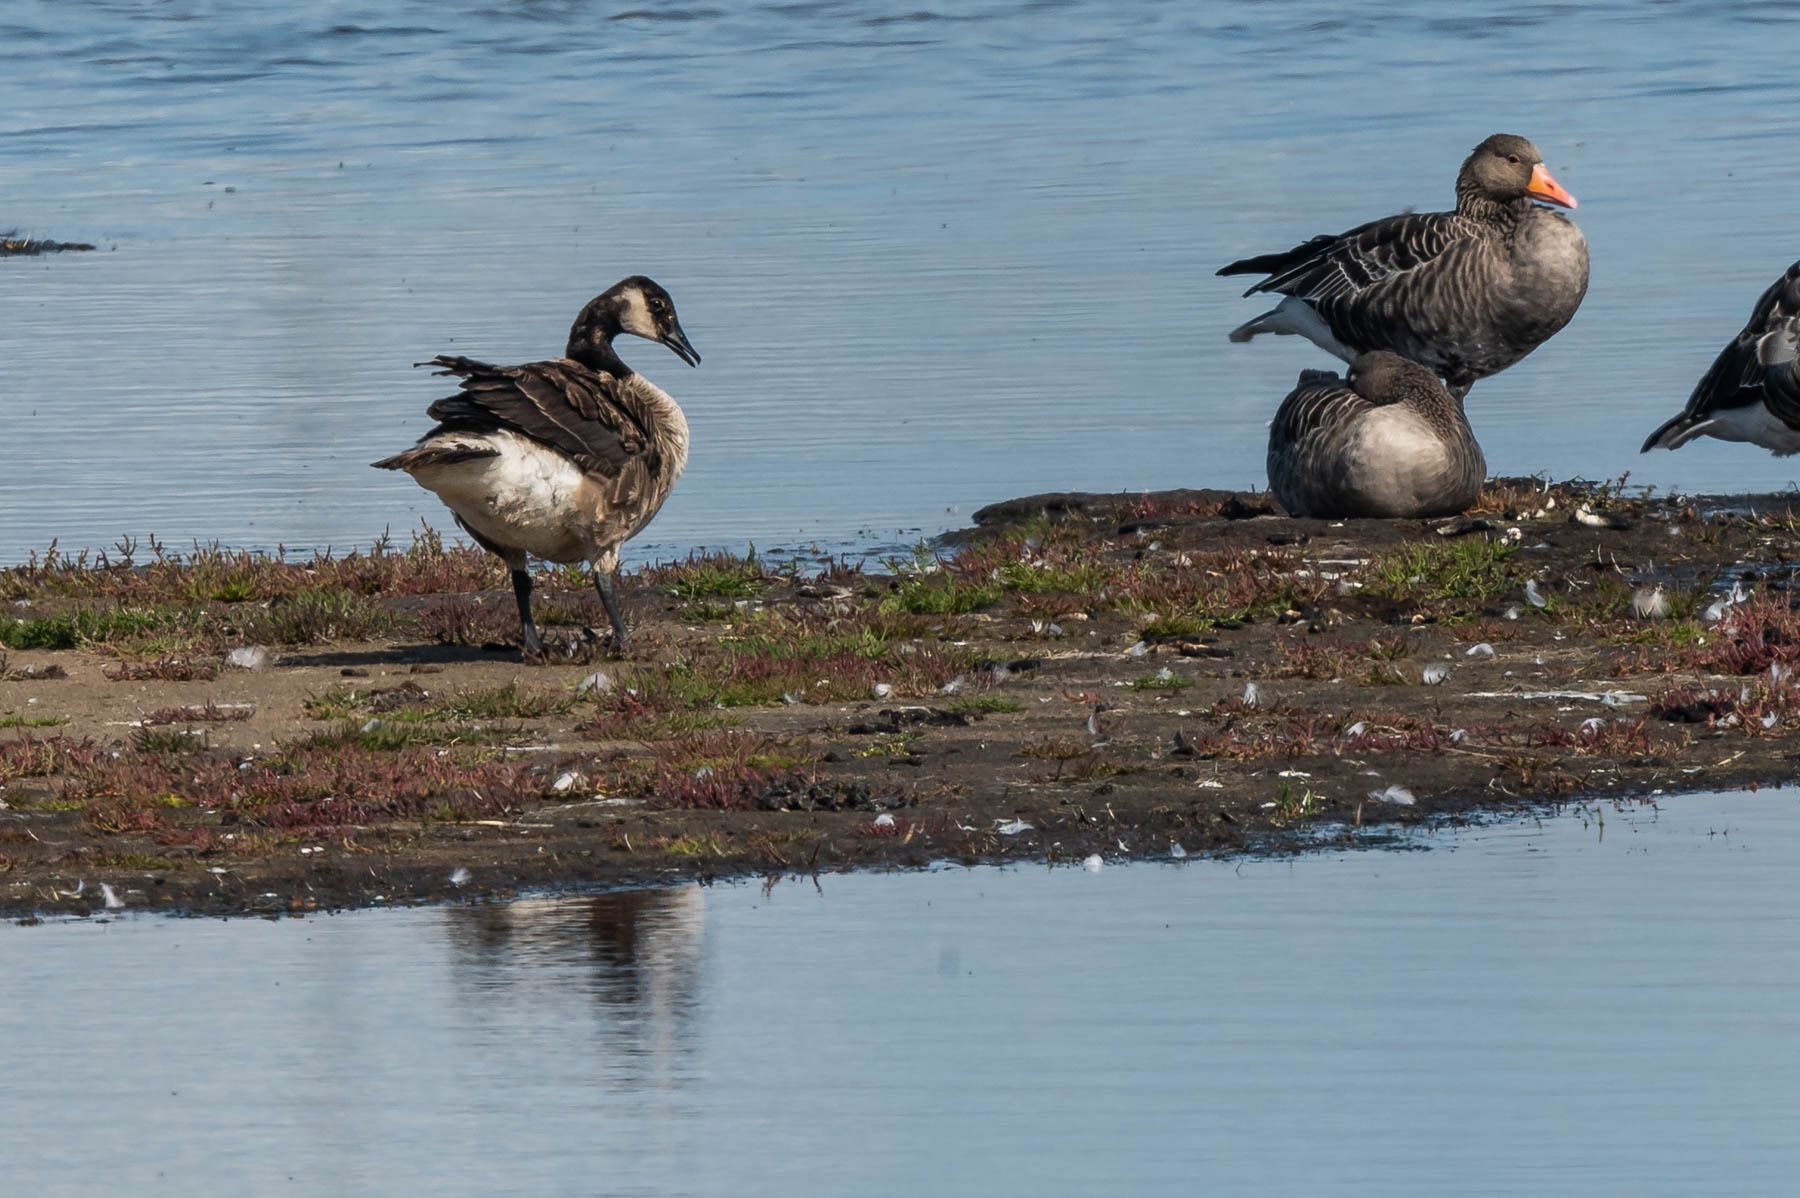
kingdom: Animalia
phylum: Chordata
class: Aves
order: Anseriformes
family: Anatidae
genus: Branta
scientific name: Branta canadensis
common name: Canadagås
